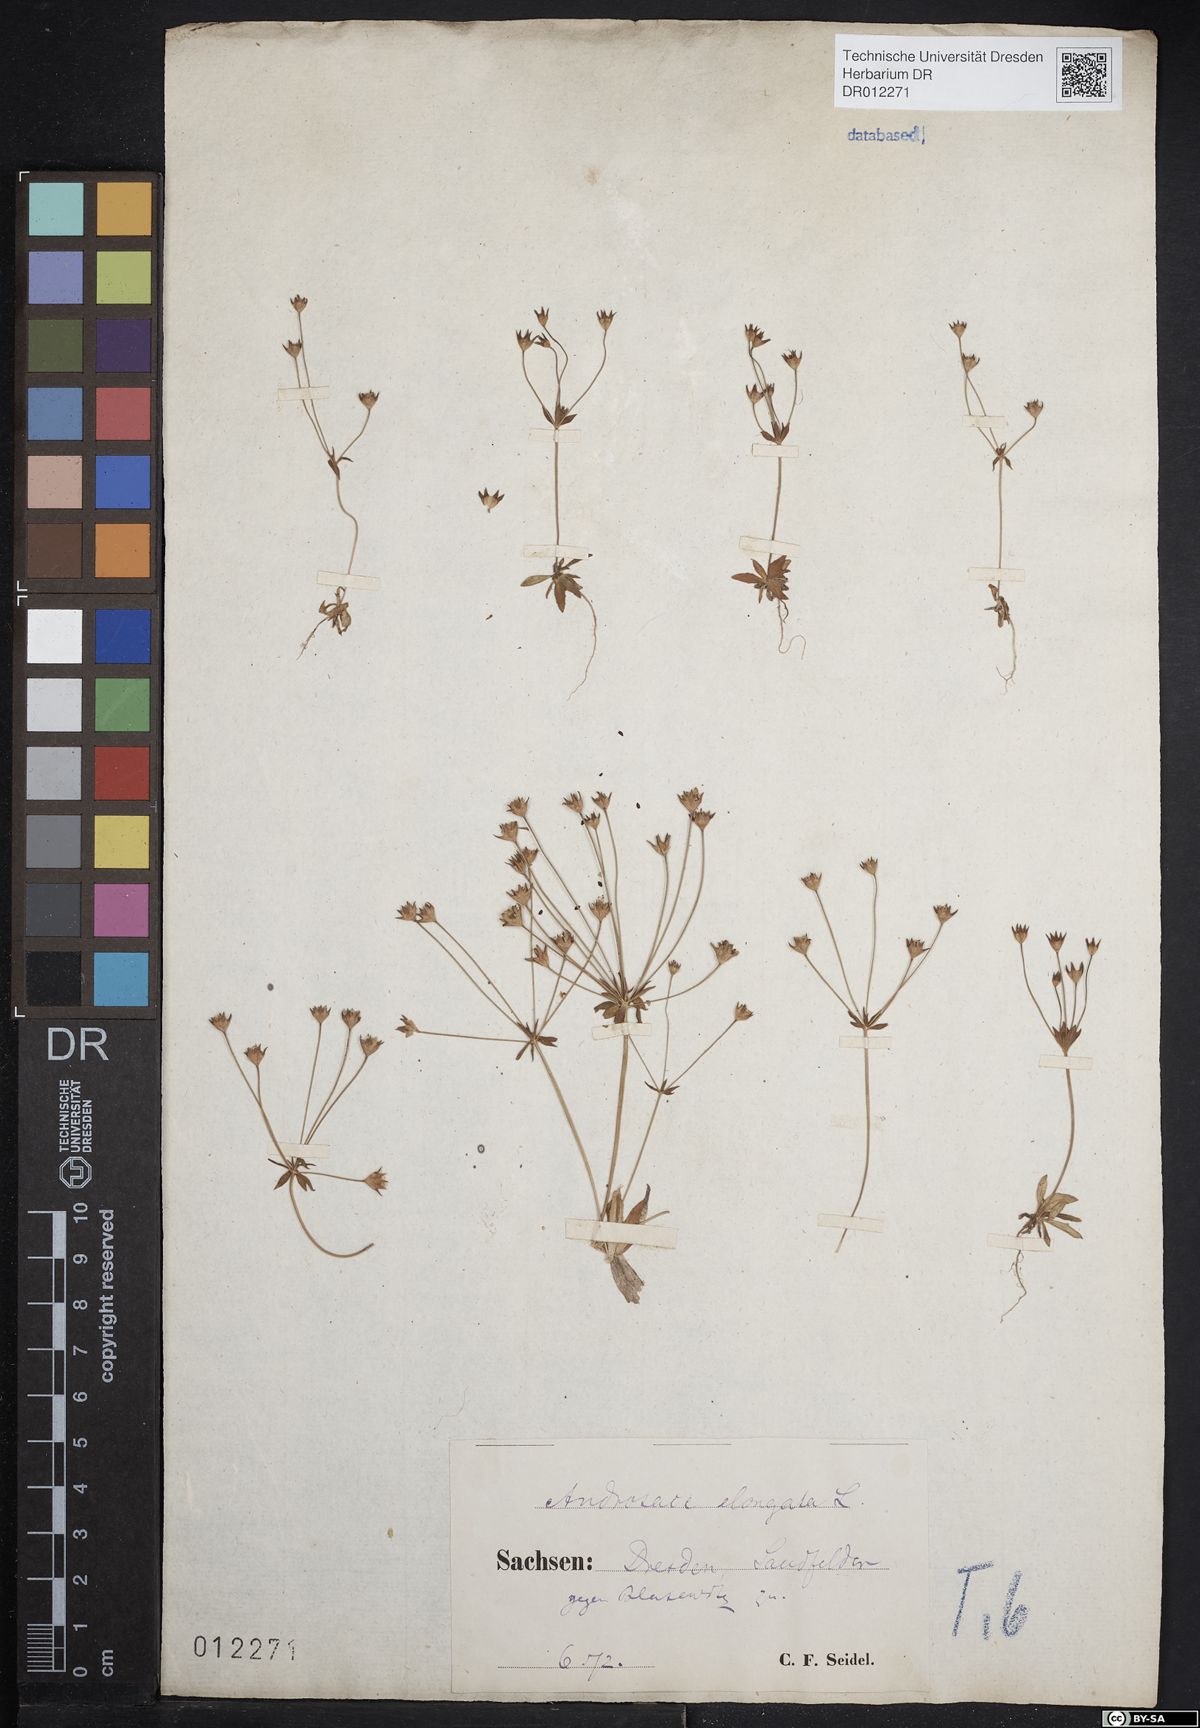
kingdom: Plantae
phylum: Tracheophyta
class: Magnoliopsida
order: Ericales
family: Primulaceae
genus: Androsace
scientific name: Androsace elongata
